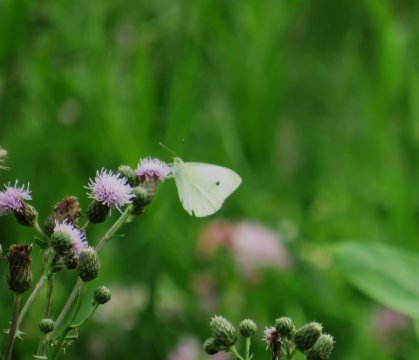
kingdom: Animalia
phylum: Arthropoda
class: Insecta
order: Lepidoptera
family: Pieridae
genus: Pieris
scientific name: Pieris rapae
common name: Cabbage White
